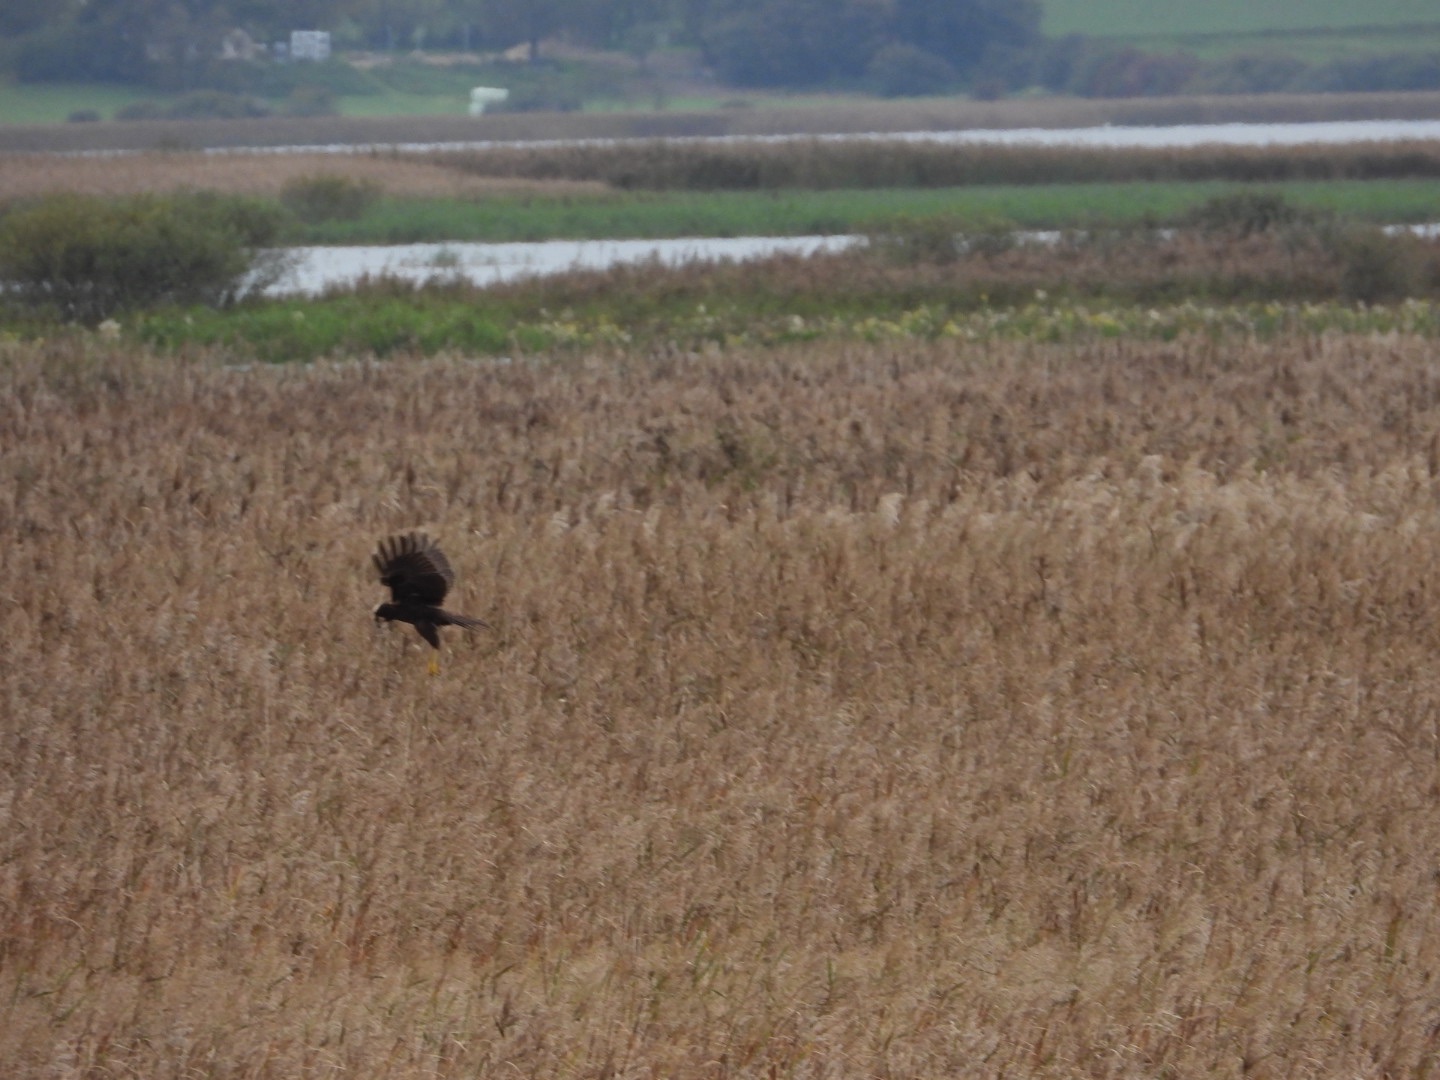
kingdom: Animalia
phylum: Chordata
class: Aves
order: Accipitriformes
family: Accipitridae
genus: Circus
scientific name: Circus aeruginosus
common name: Rørhøg
